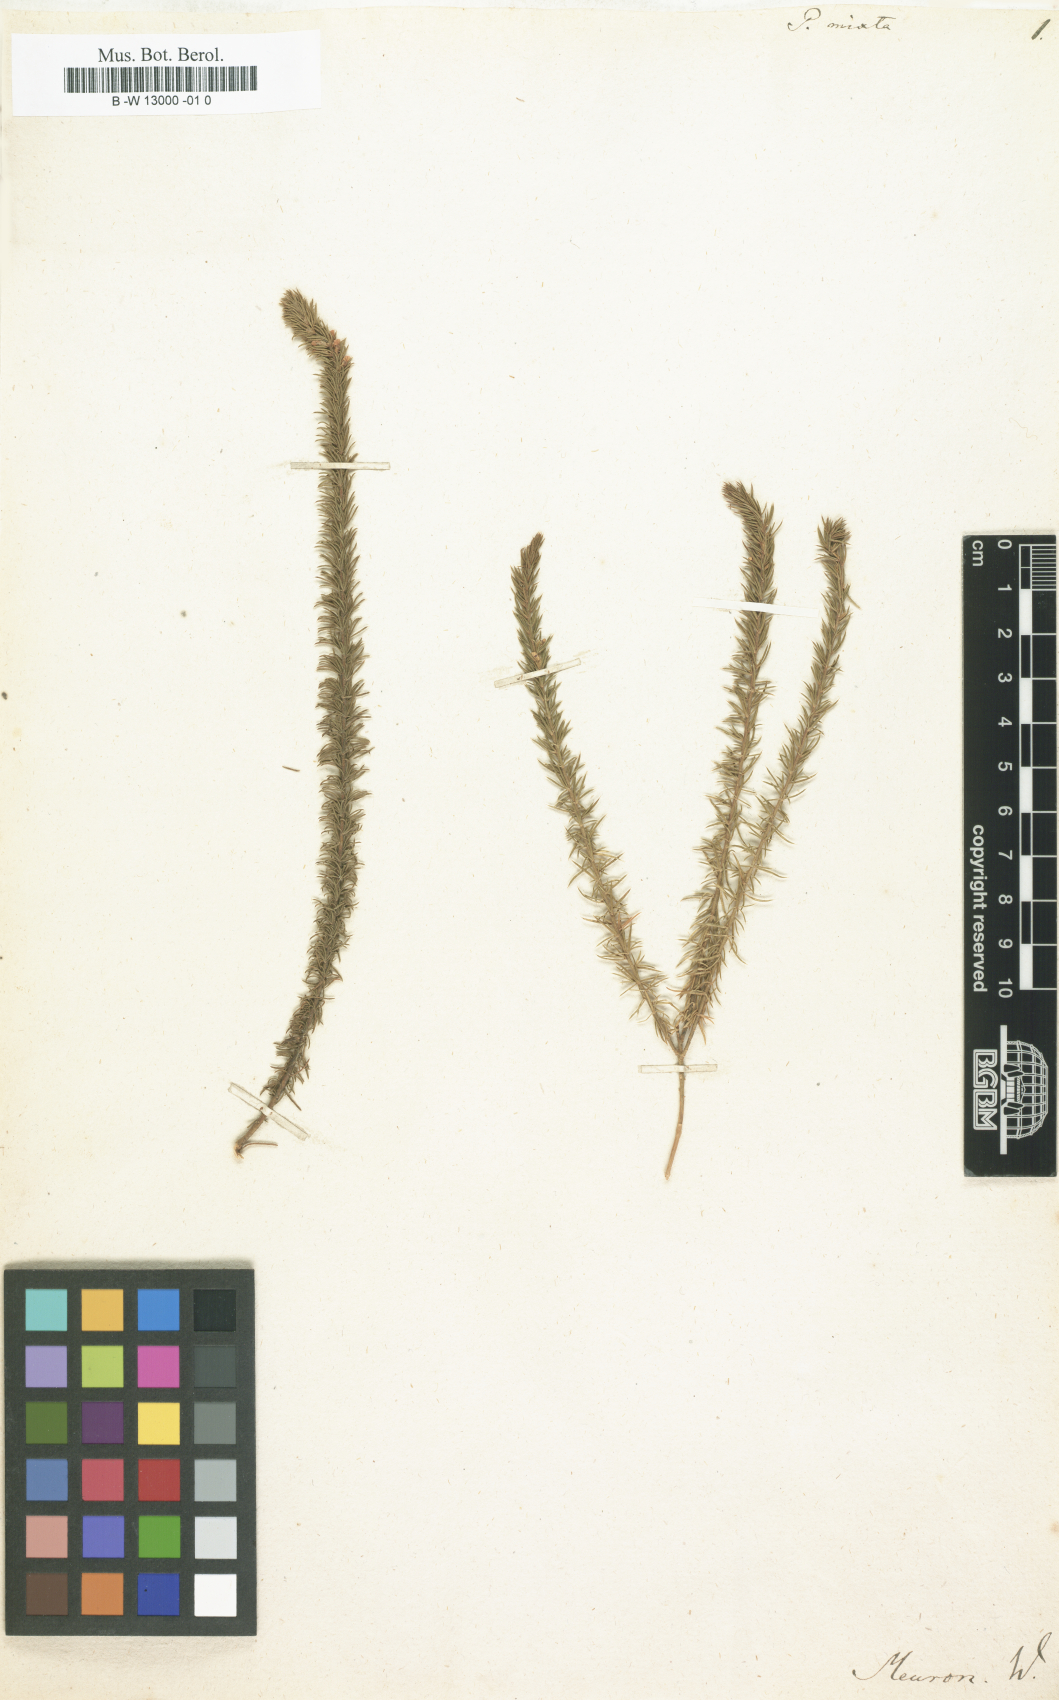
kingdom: Plantae
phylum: Tracheophyta
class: Magnoliopsida
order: Fabales
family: Polygalaceae
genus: Polygala
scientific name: Polygala mixta
